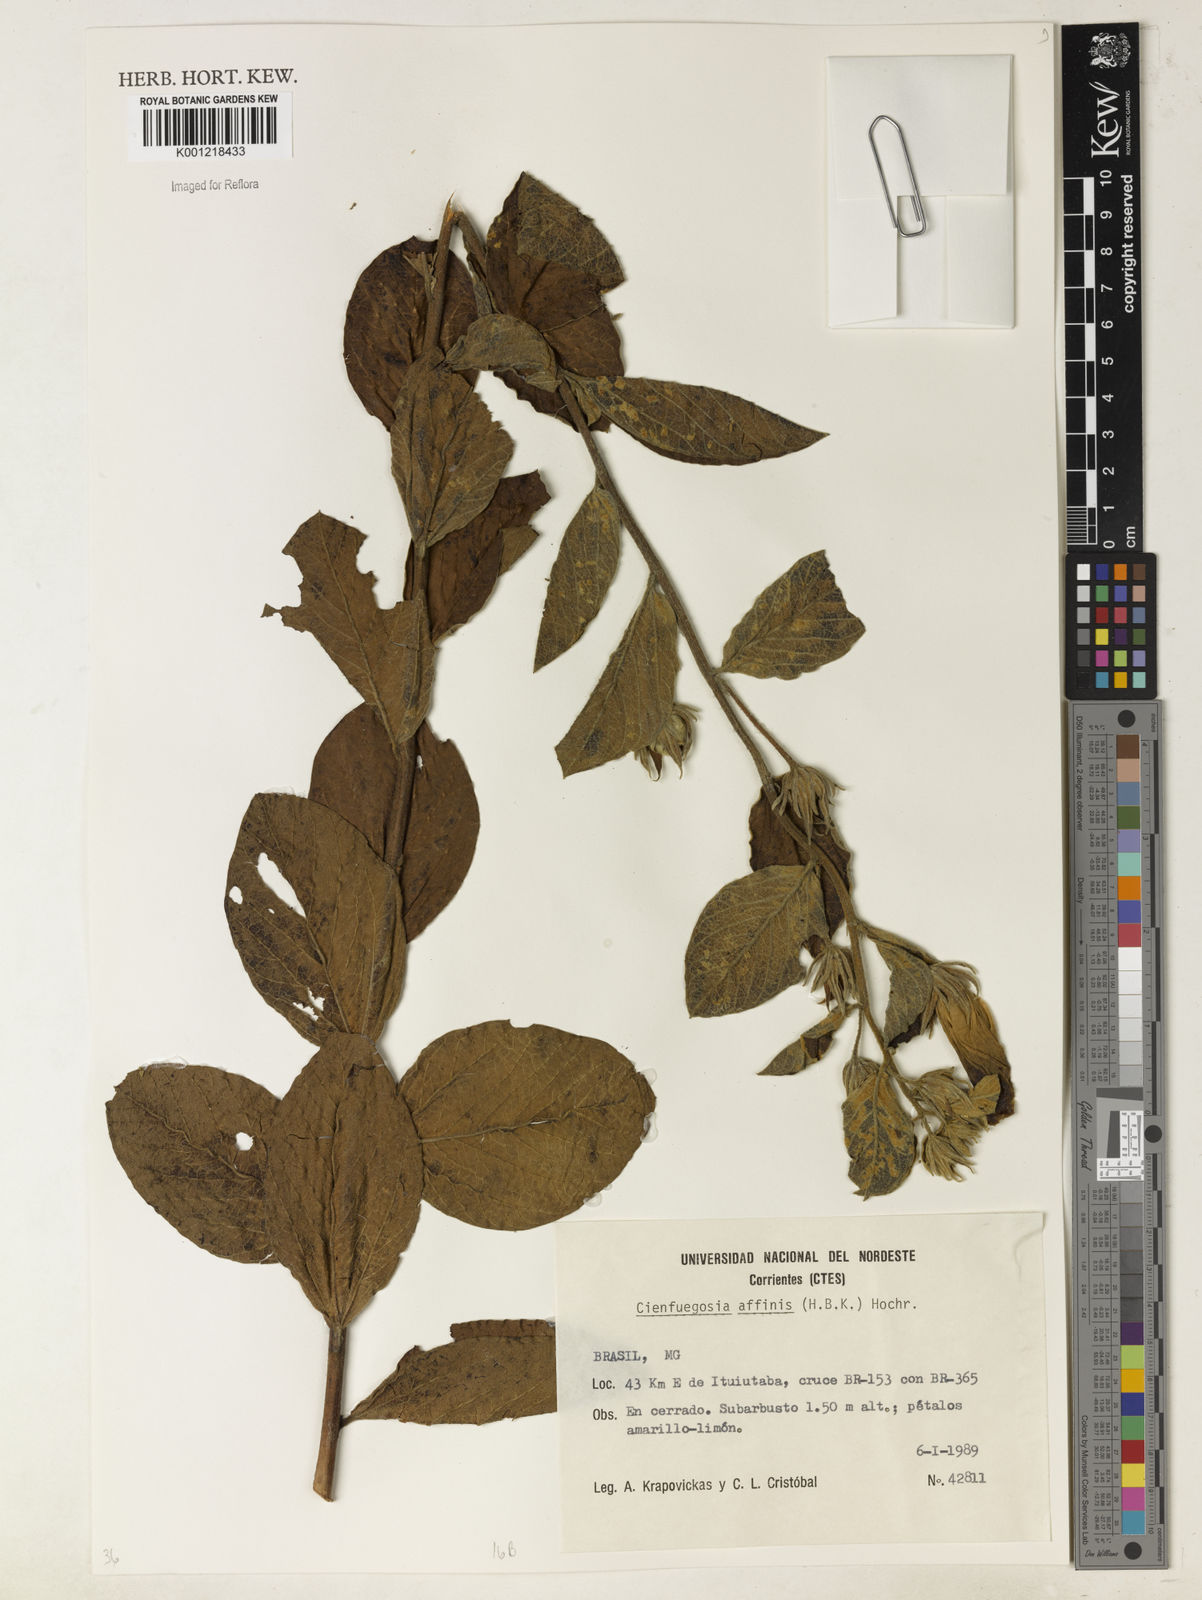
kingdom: Plantae
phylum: Tracheophyta
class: Magnoliopsida
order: Malvales
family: Malvaceae
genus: Cienfuegosia
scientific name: Cienfuegosia affinis
